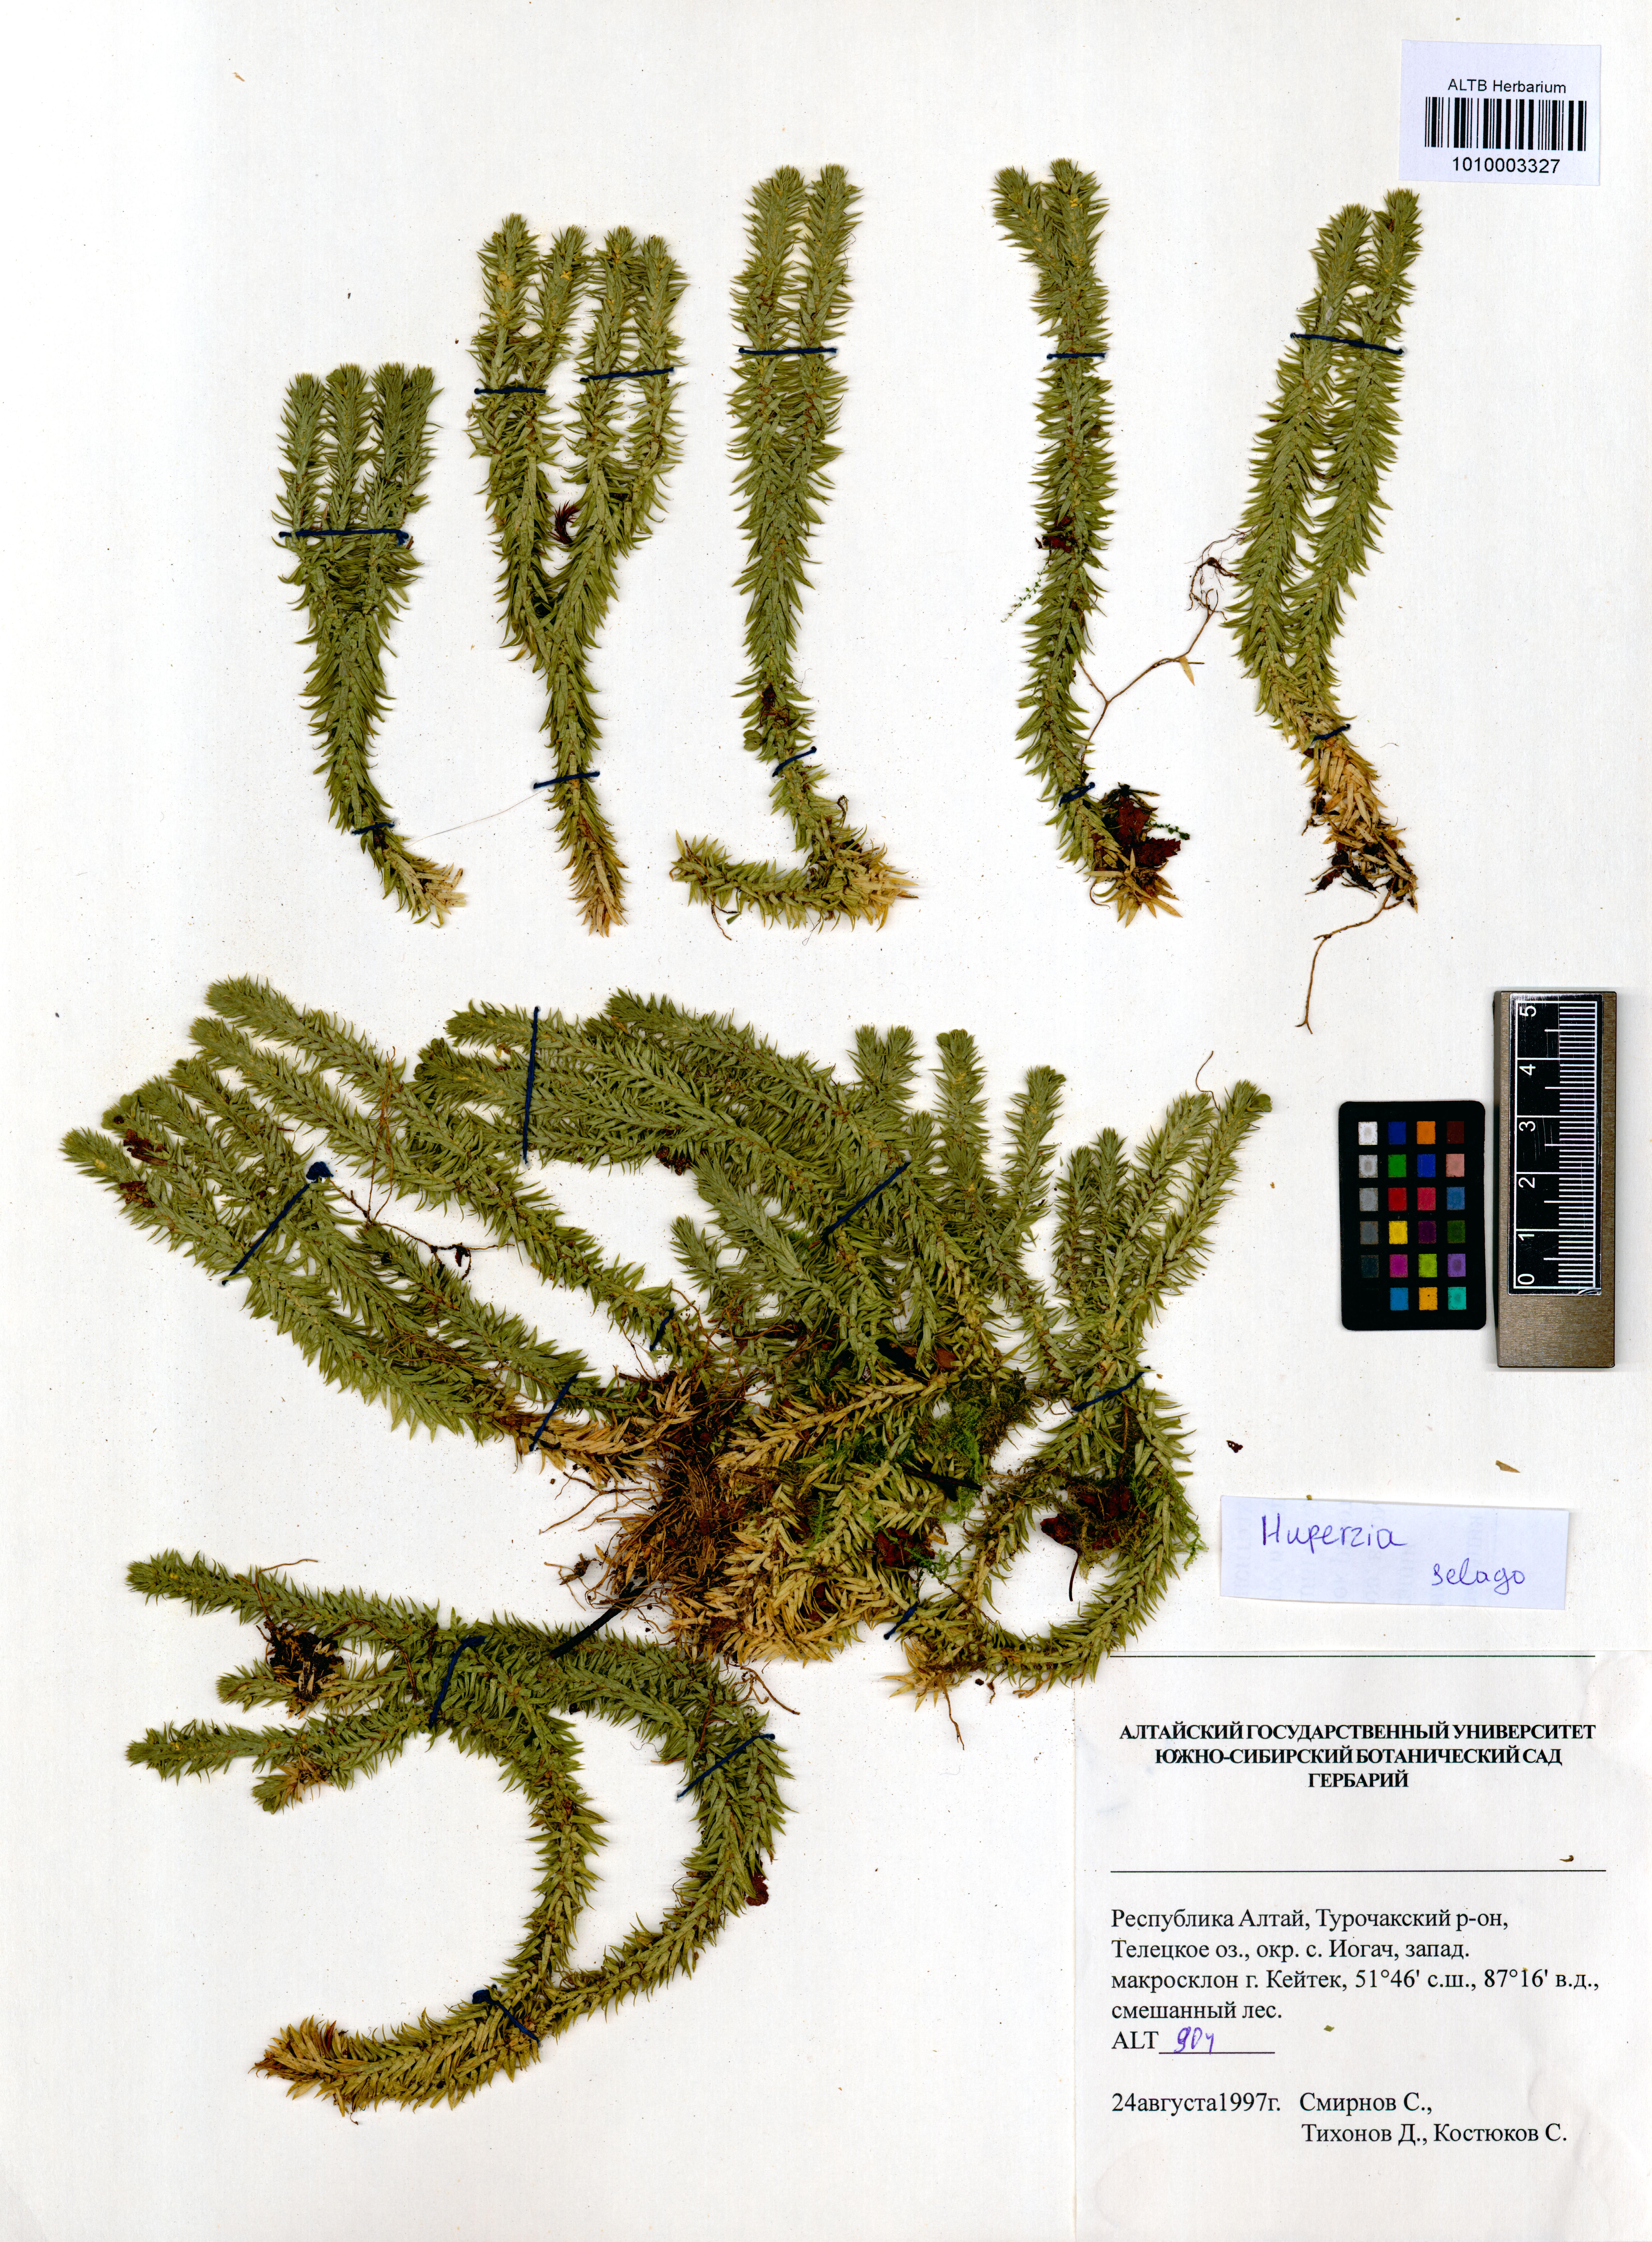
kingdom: Plantae
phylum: Tracheophyta
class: Lycopodiopsida
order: Lycopodiales
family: Lycopodiaceae
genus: Huperzia
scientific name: Huperzia selago
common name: Northern firmoss
